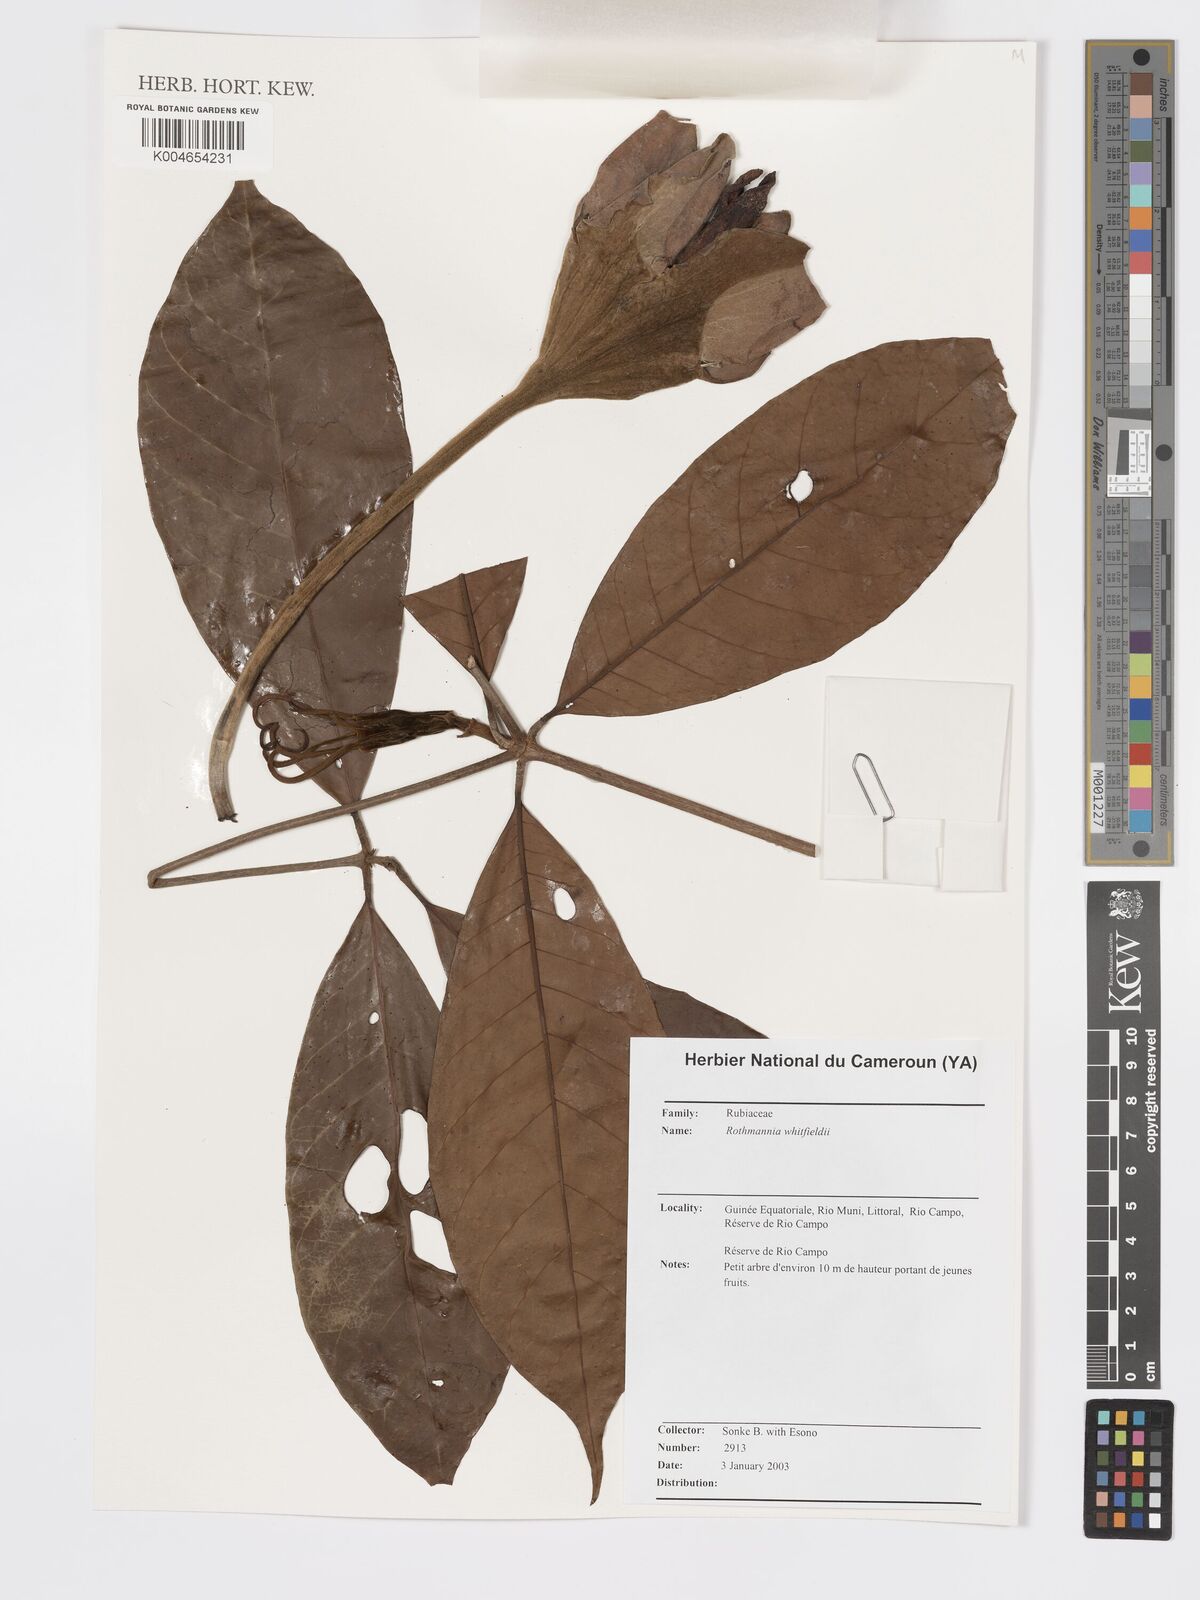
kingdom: Plantae
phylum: Tracheophyta
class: Magnoliopsida
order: Gentianales
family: Rubiaceae
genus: Rothmannia
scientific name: Rothmannia whitfieldii
